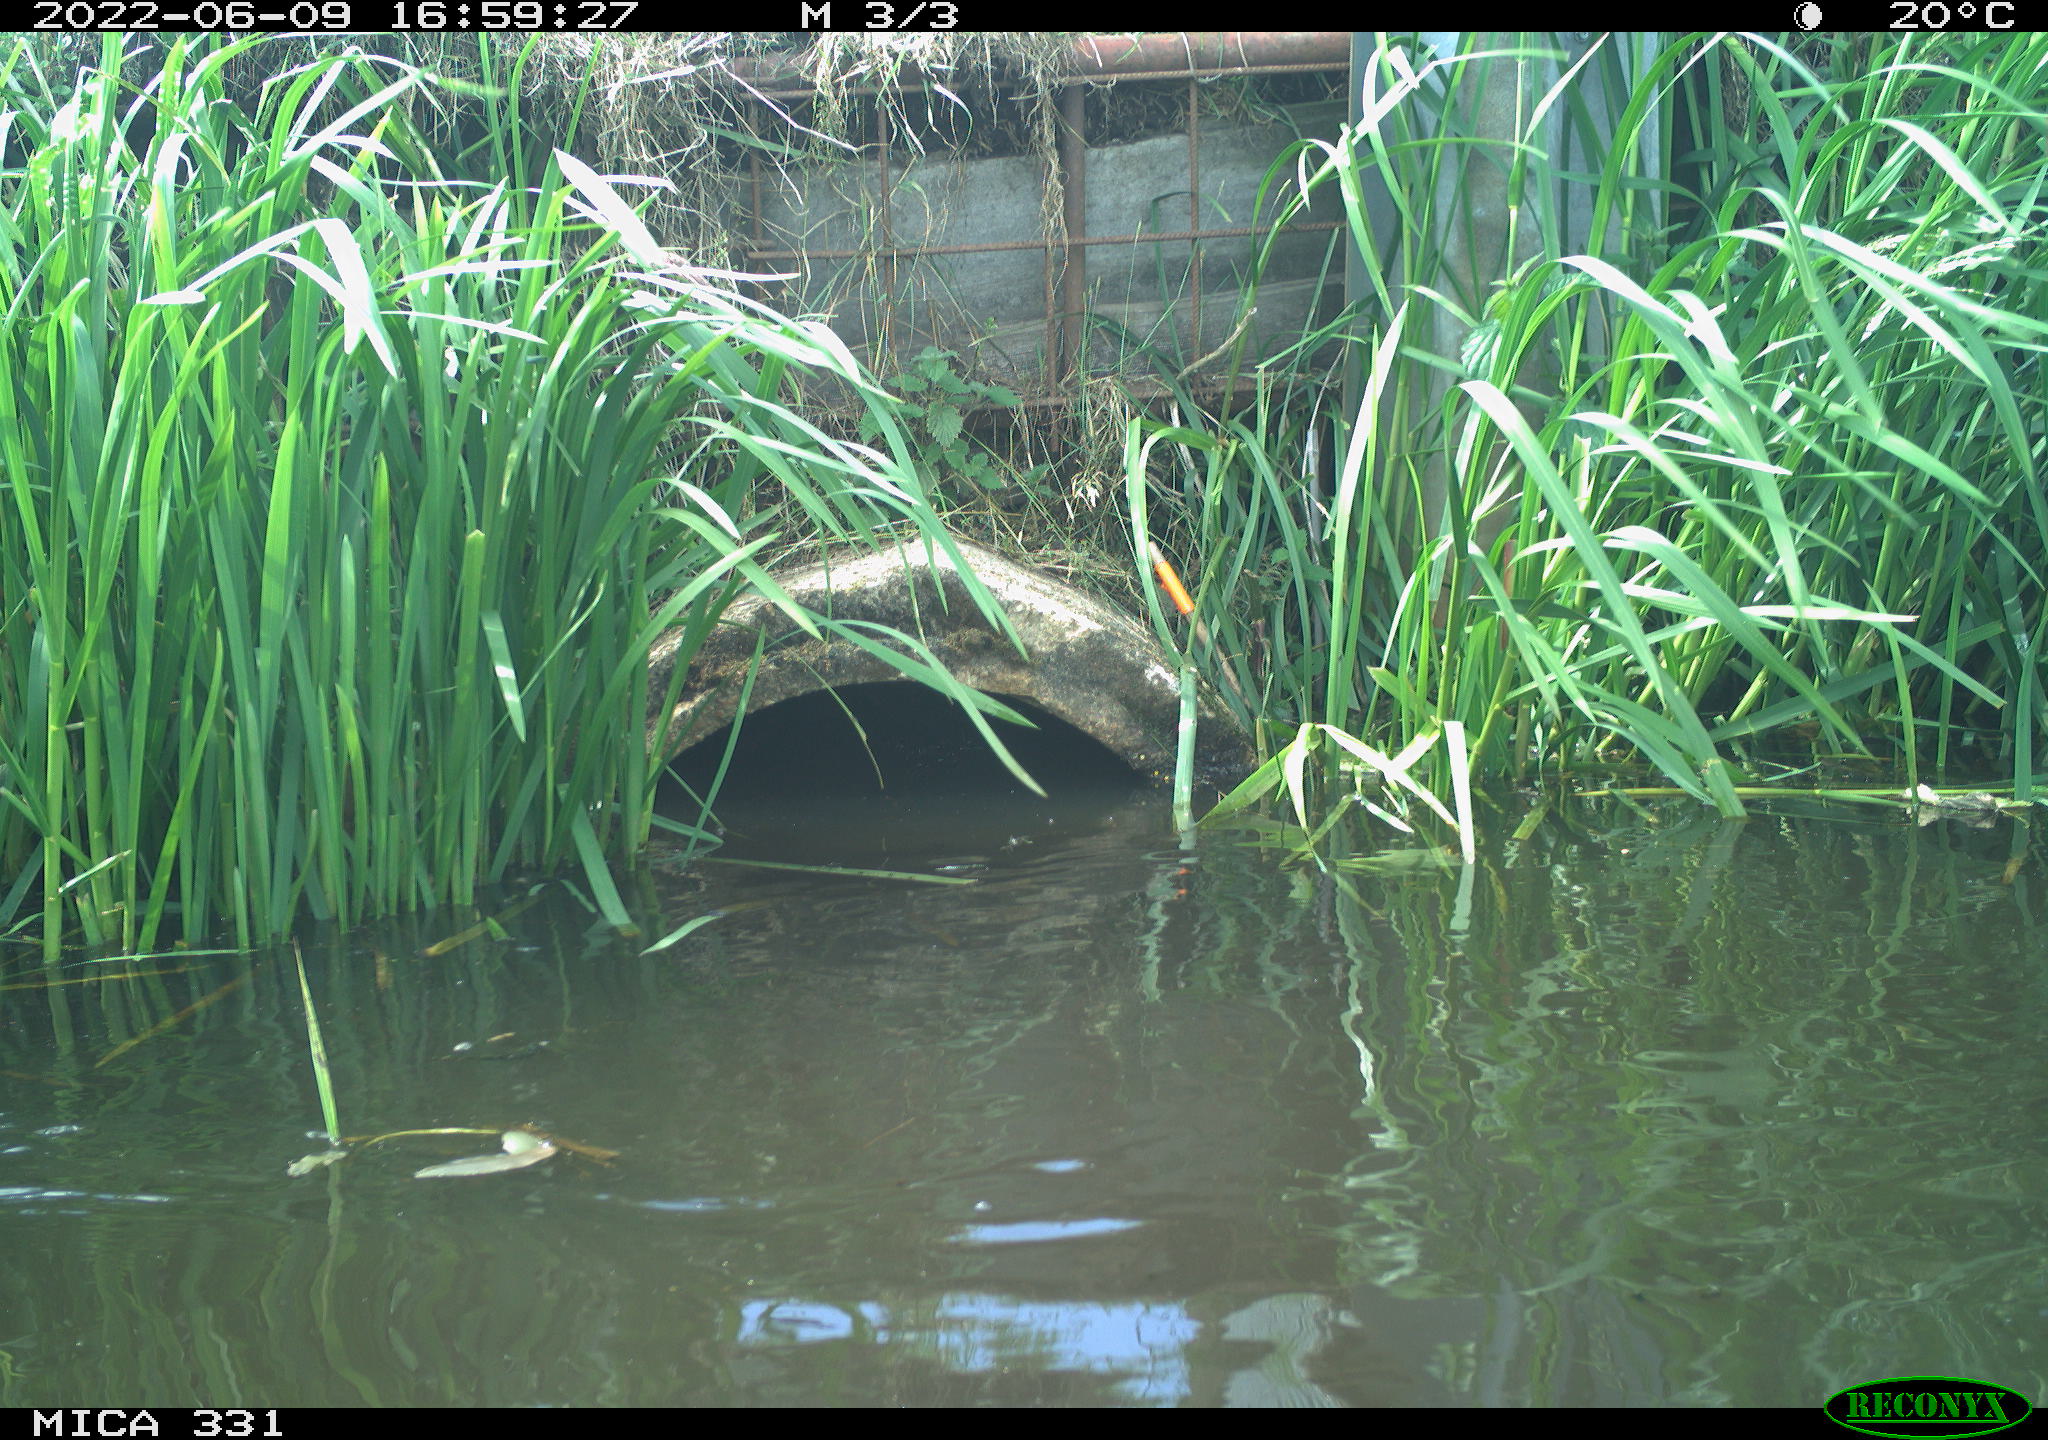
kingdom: Animalia
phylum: Chordata
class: Aves
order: Gruiformes
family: Rallidae
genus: Fulica
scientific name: Fulica atra
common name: Eurasian coot
